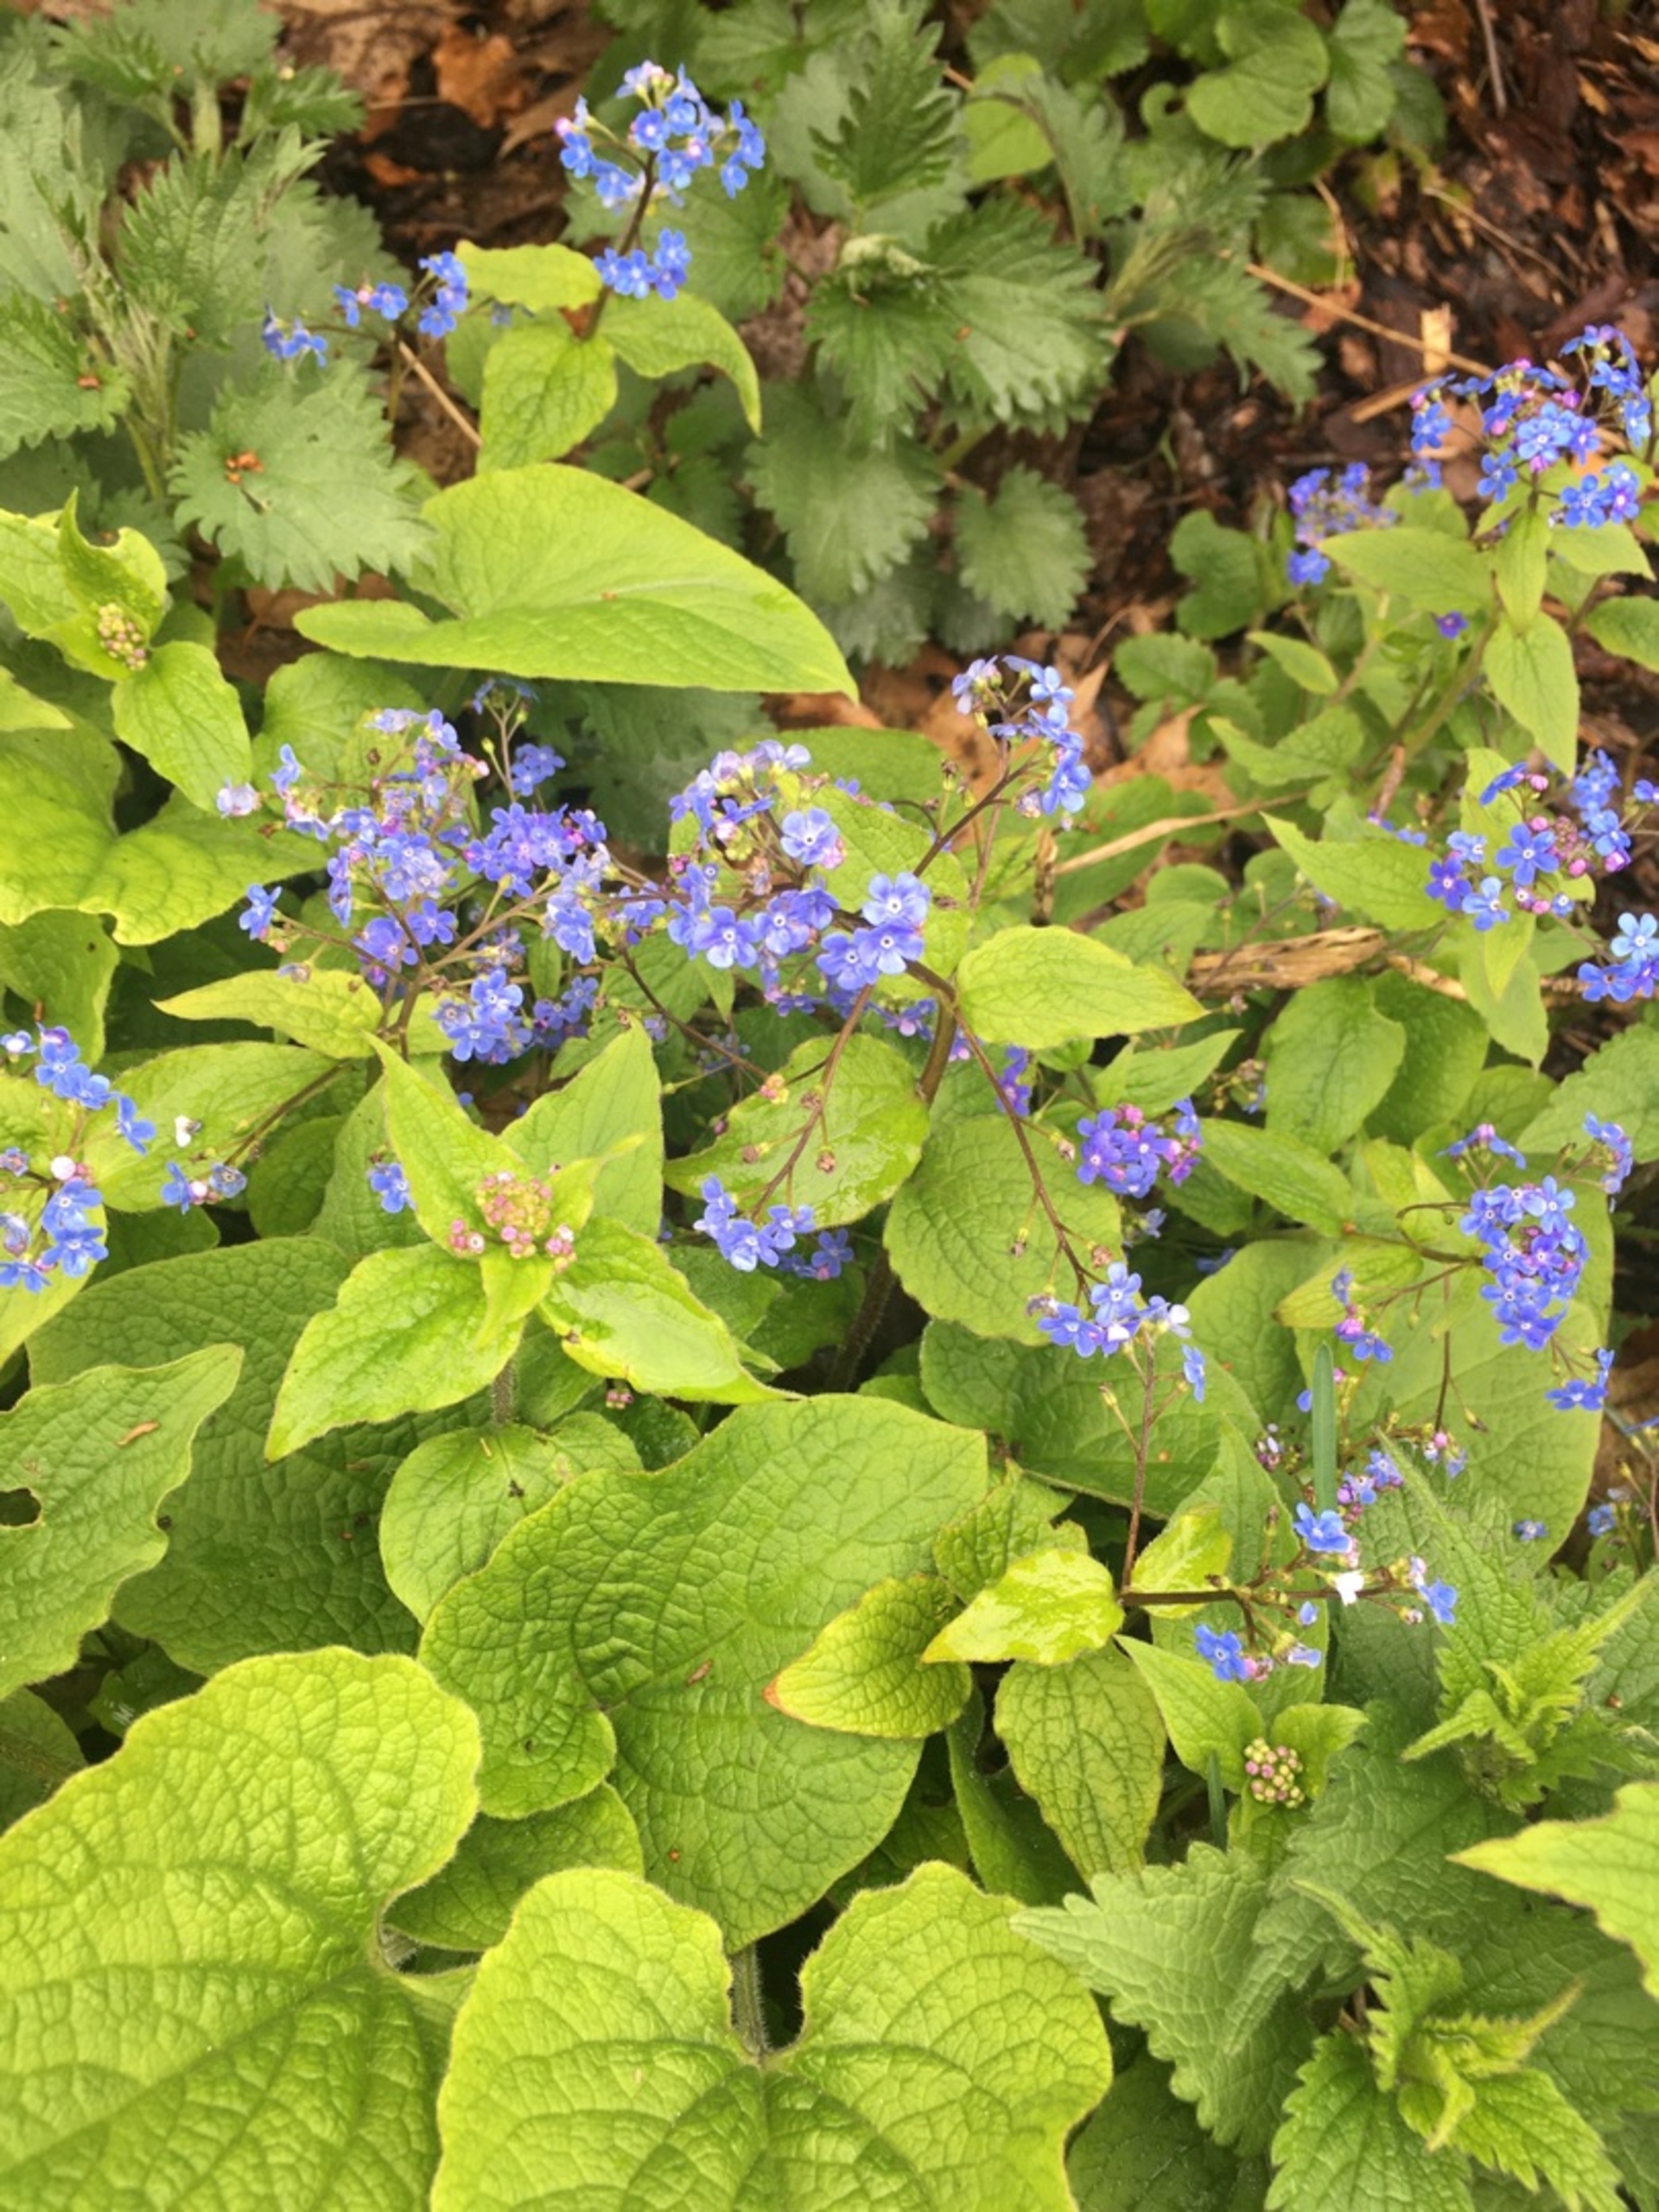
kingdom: Plantae
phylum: Tracheophyta
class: Magnoliopsida
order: Boraginales
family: Boraginaceae
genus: Brunnera
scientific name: Brunnera macrophylla
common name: Kærmindesøster
